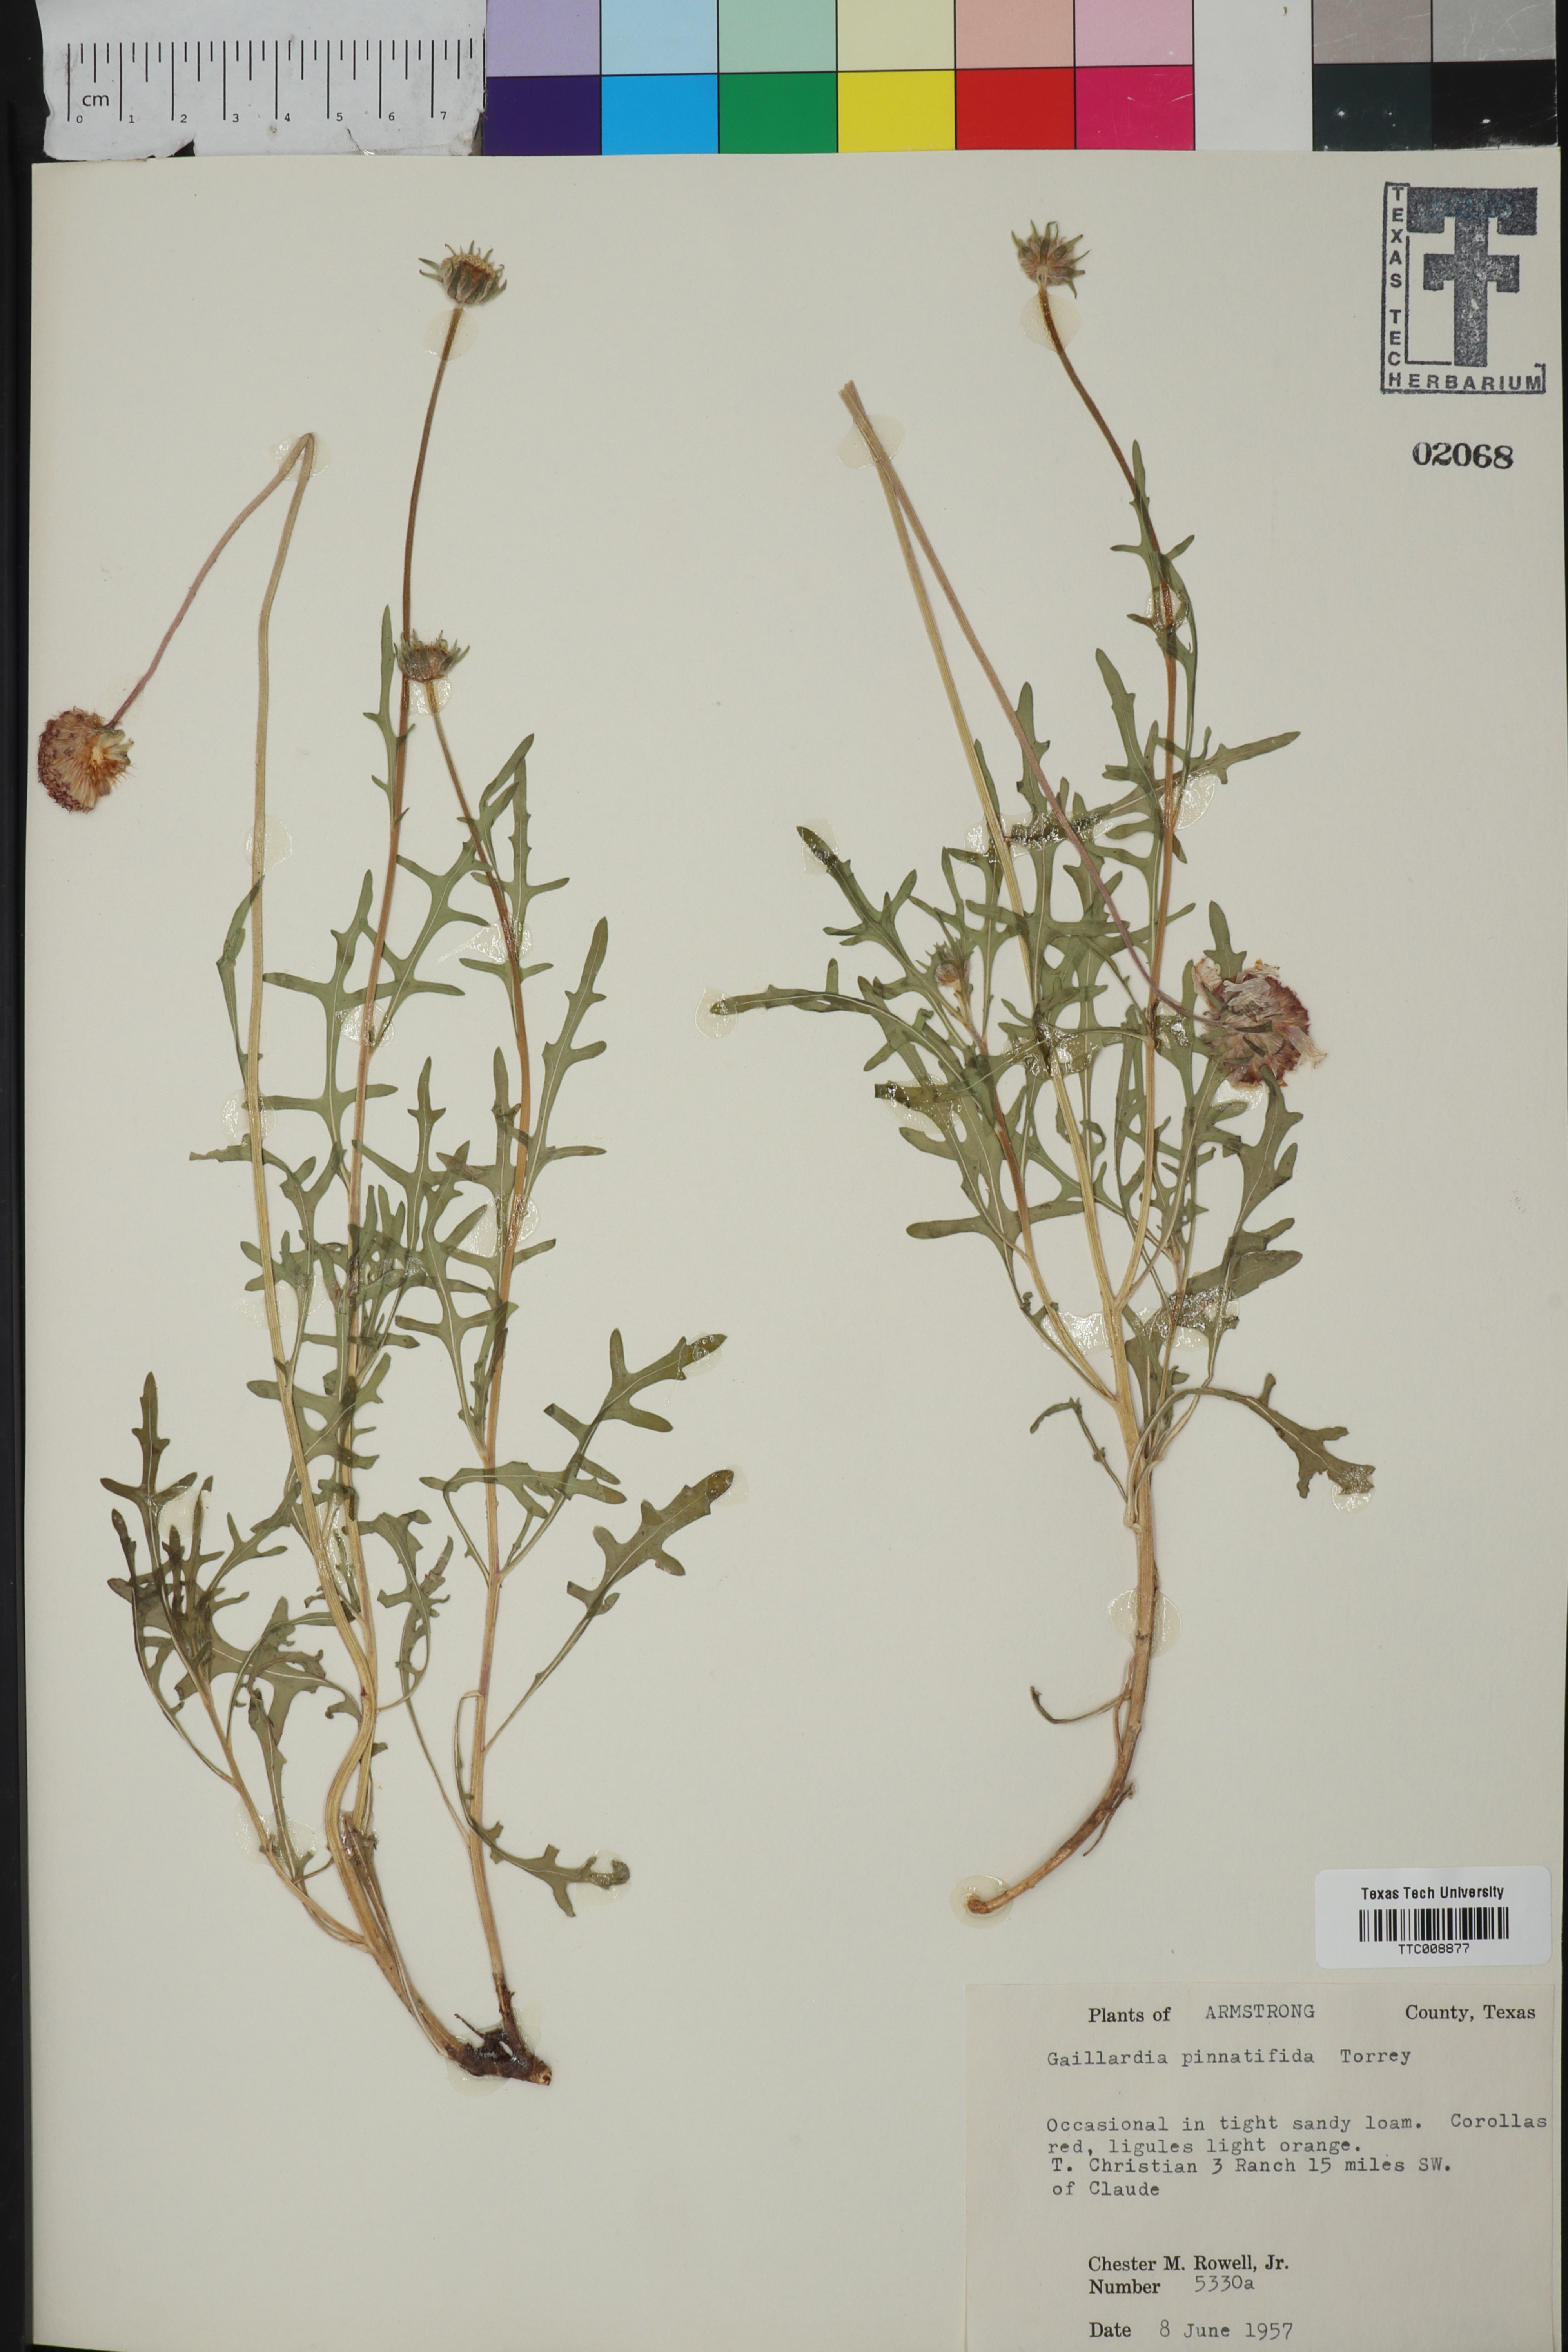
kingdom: Plantae
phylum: Tracheophyta
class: Magnoliopsida
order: Asterales
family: Asteraceae
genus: Gaillardia
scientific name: Gaillardia pinnatifida
